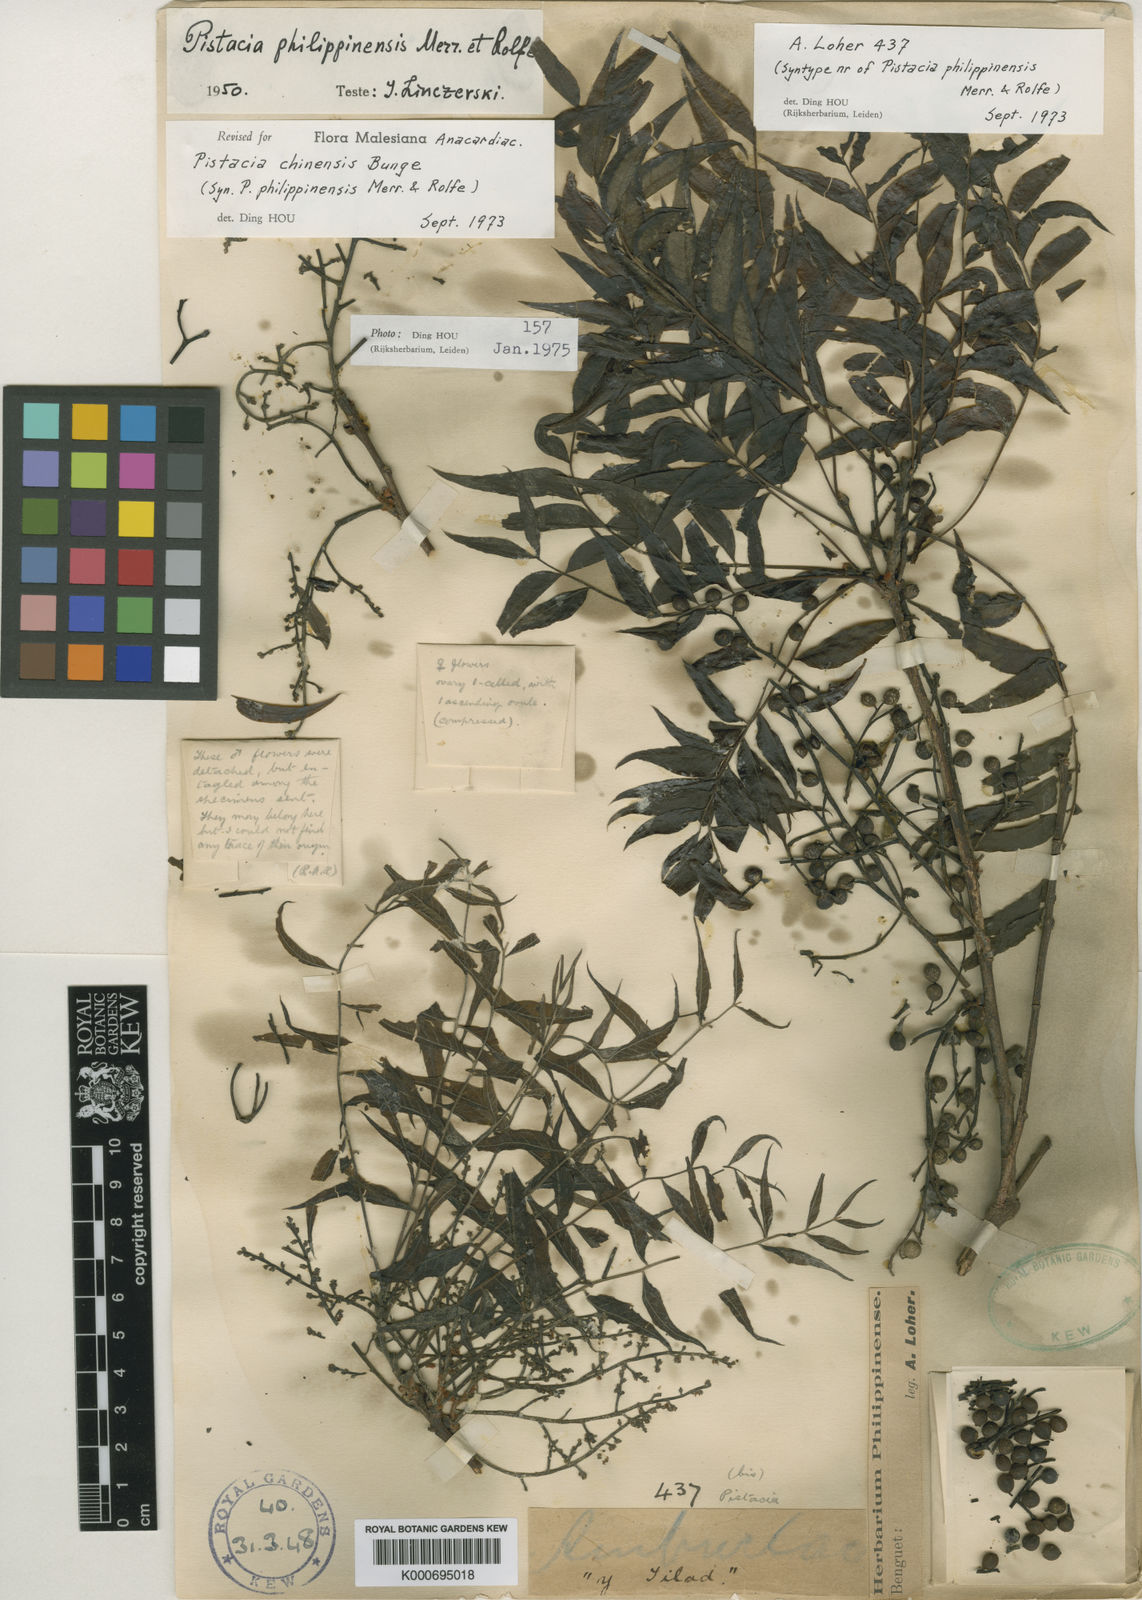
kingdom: Plantae
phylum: Tracheophyta
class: Magnoliopsida
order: Sapindales
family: Anacardiaceae
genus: Pistacia
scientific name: Pistacia chinensis
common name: Chinese pistache
